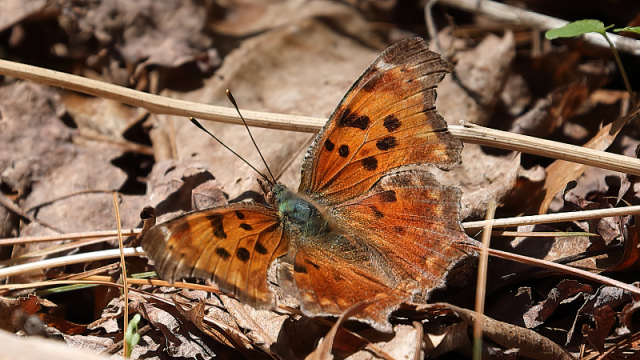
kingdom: Animalia
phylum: Arthropoda
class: Insecta
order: Lepidoptera
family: Nymphalidae
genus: Polygonia
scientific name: Polygonia comma
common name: Eastern Comma
